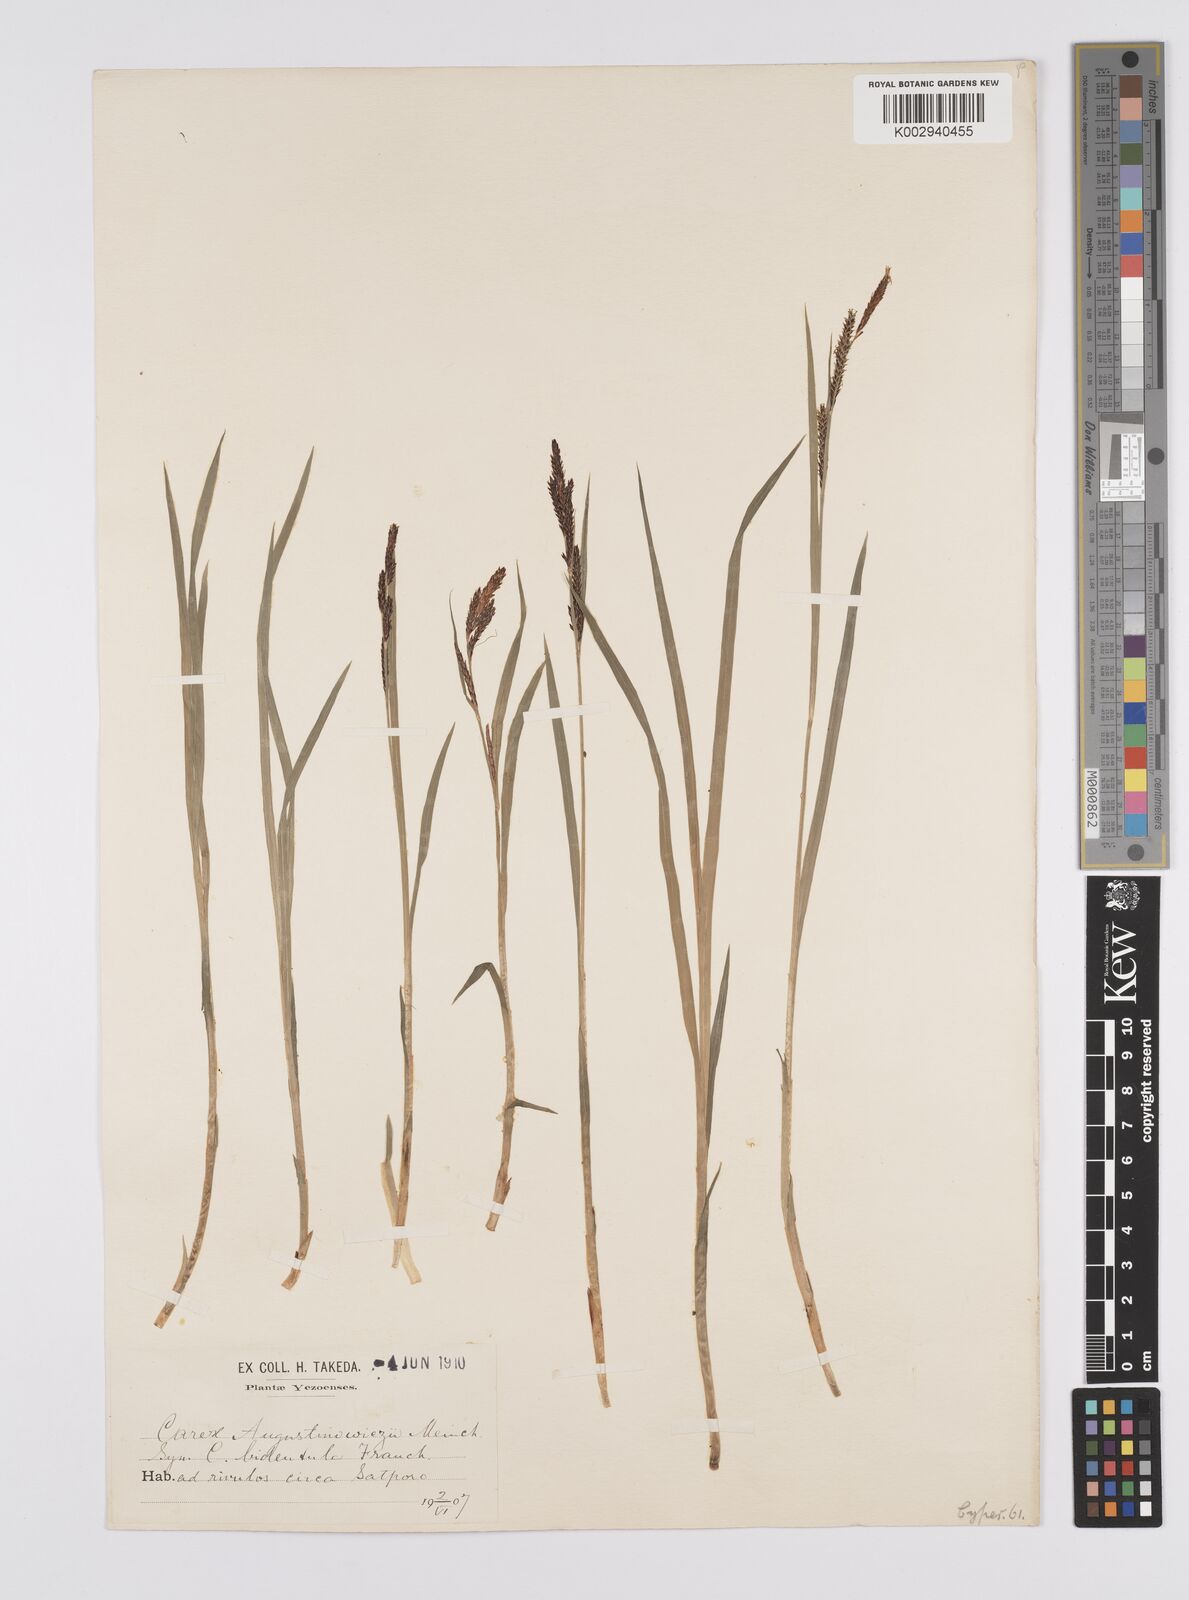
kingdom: Plantae
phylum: Tracheophyta
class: Liliopsida
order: Poales
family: Cyperaceae
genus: Carex
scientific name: Carex augustinowiczii
